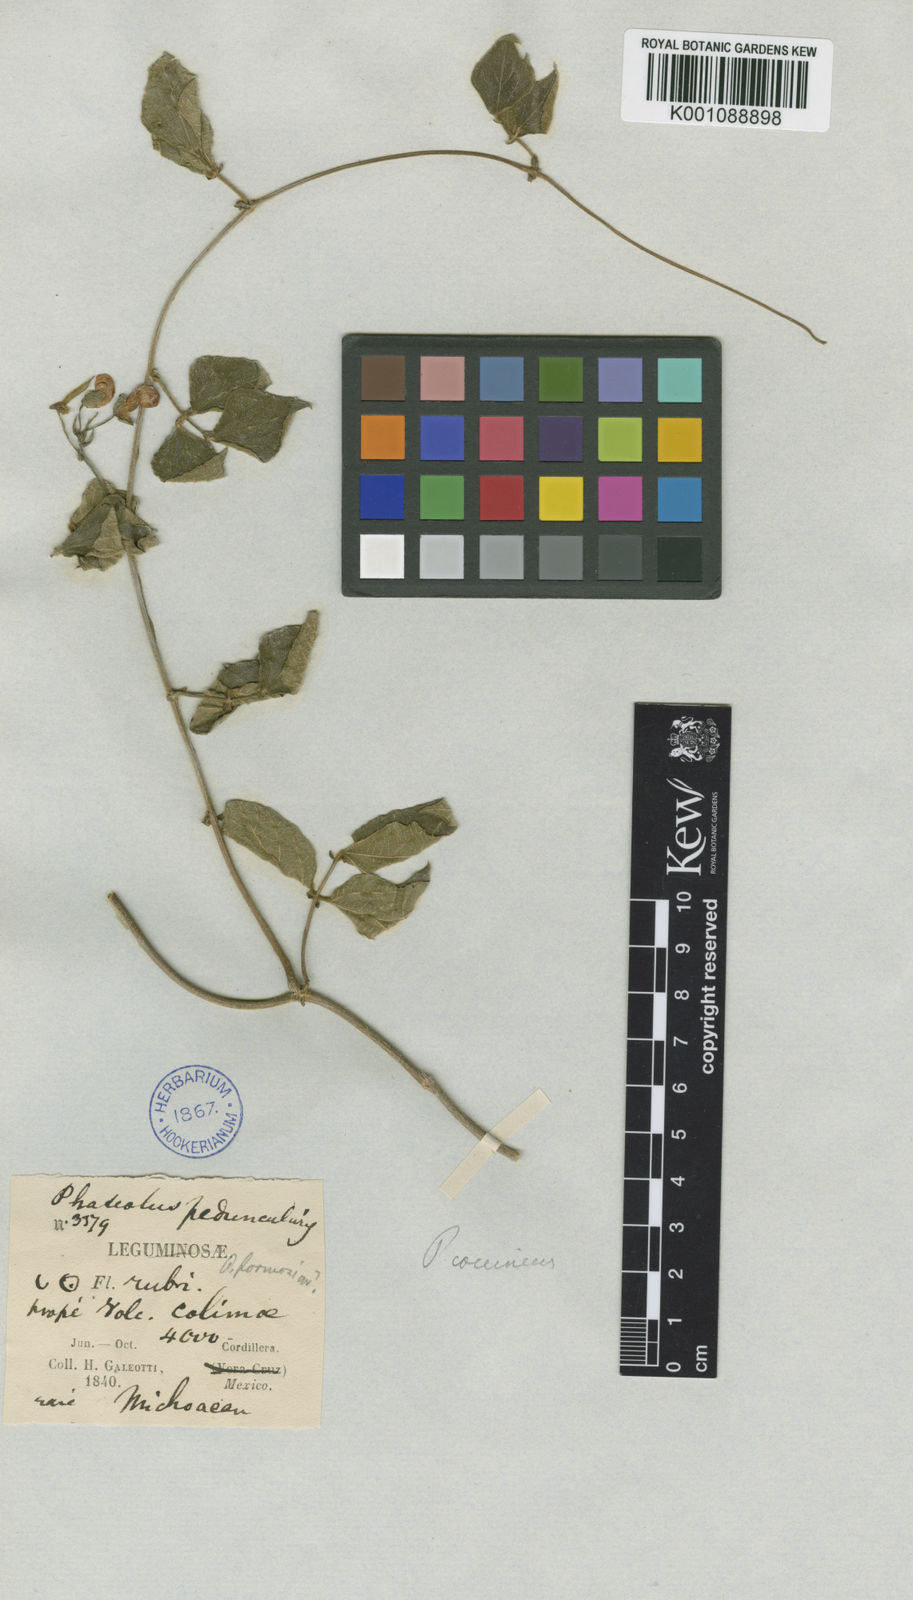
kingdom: Plantae
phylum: Tracheophyta
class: Magnoliopsida
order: Fabales
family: Fabaceae
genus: Phaseolus
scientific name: Phaseolus coccineus
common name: Runner bean
